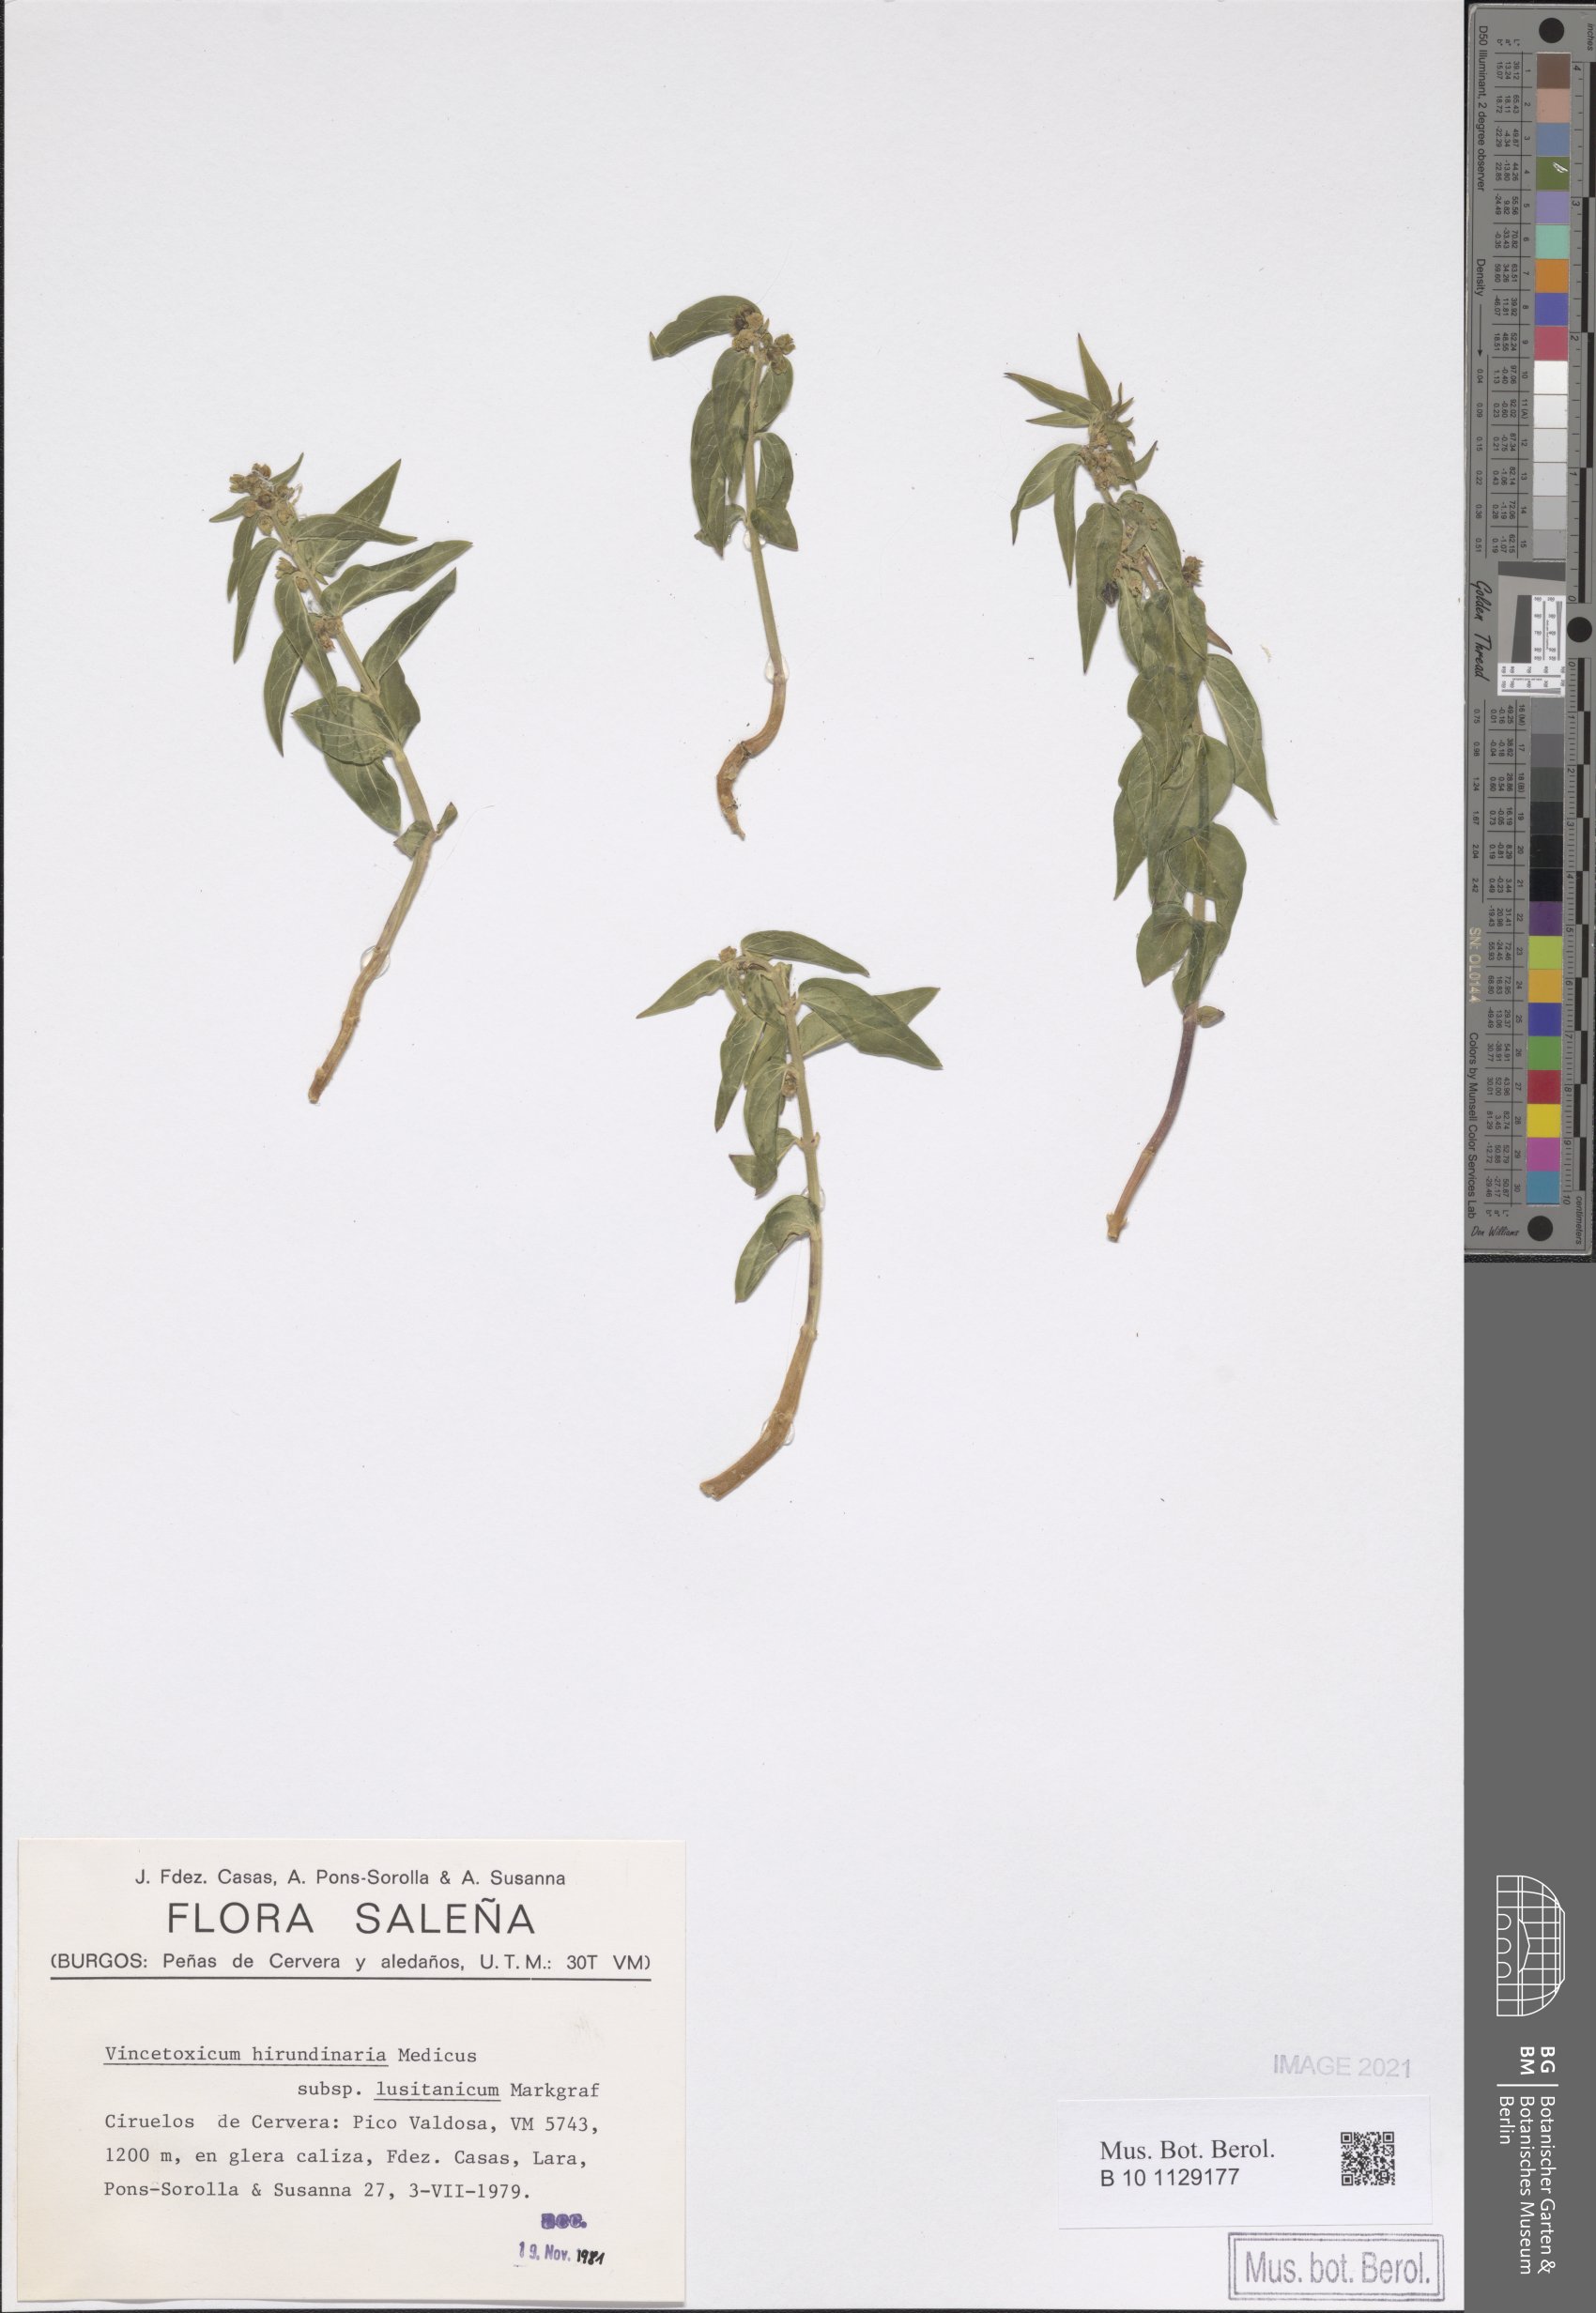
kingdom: Plantae
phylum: Tracheophyta
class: Magnoliopsida
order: Gentianales
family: Apocynaceae
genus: Vincetoxicum
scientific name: Vincetoxicum hirundinaria
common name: White swallowwort
